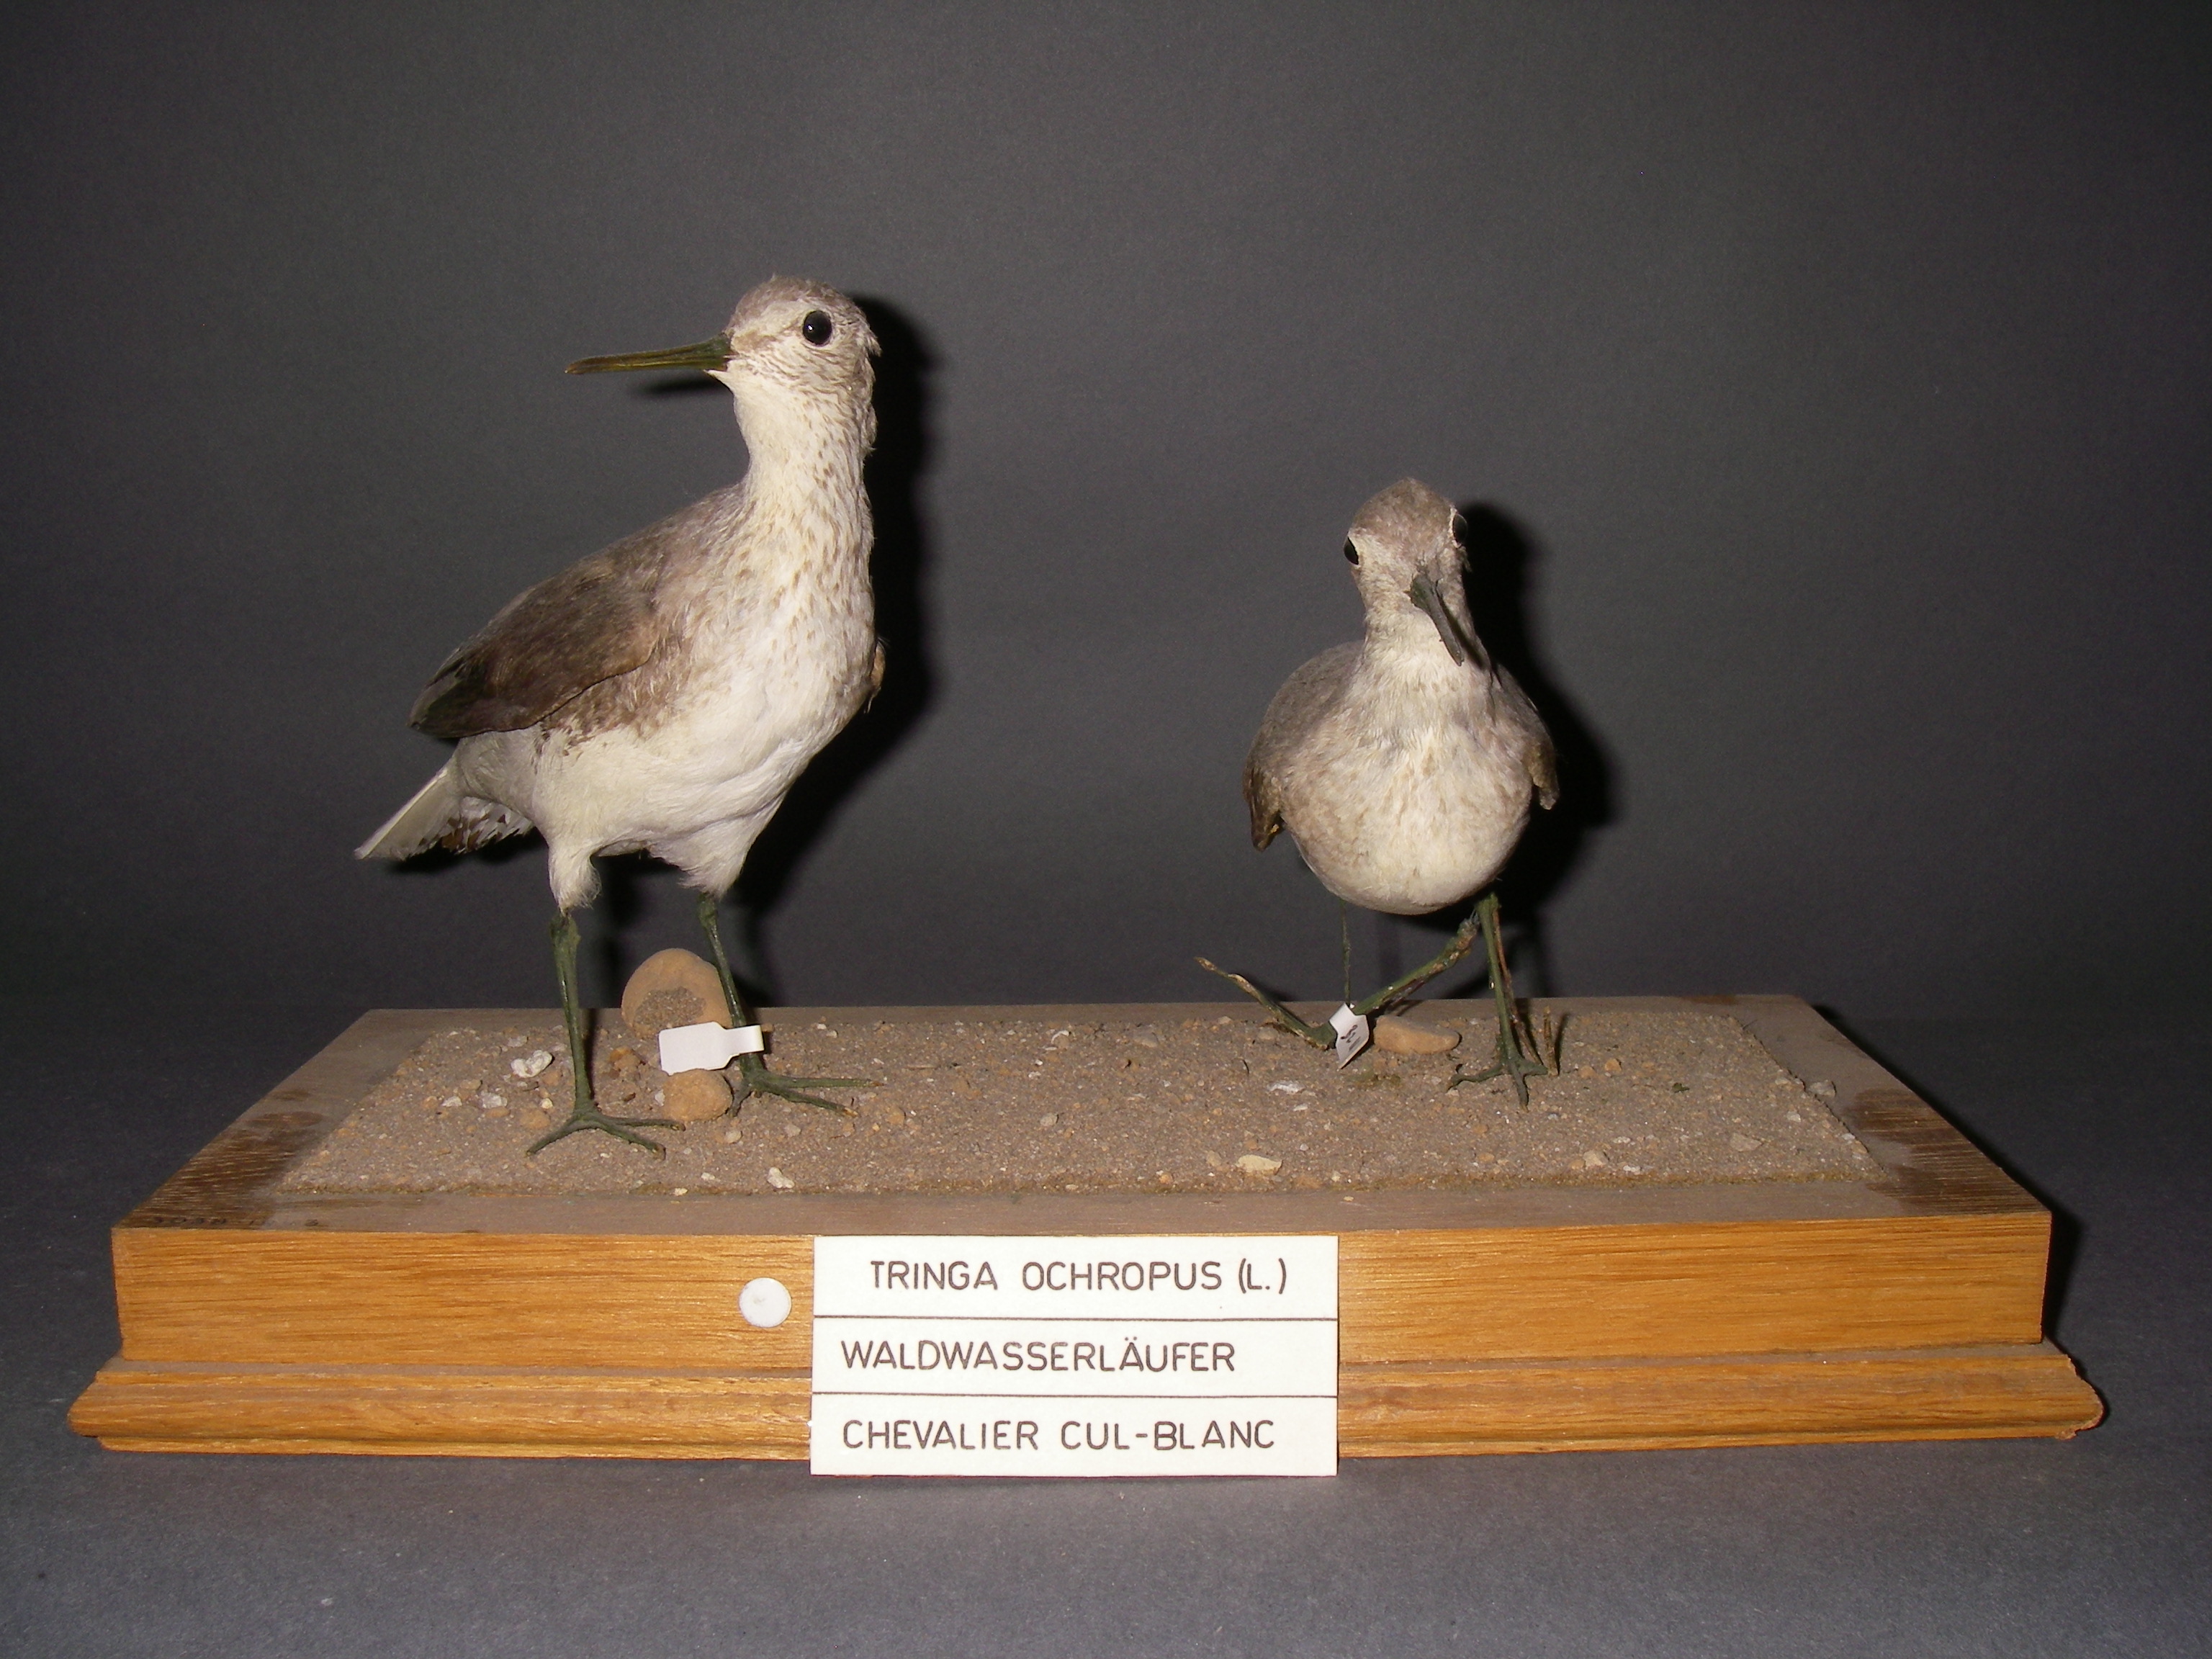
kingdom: Animalia
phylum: Chordata
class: Aves
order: Charadriiformes
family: Scolopacidae
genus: Tringa
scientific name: Tringa ochropus
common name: Green sandpiper
